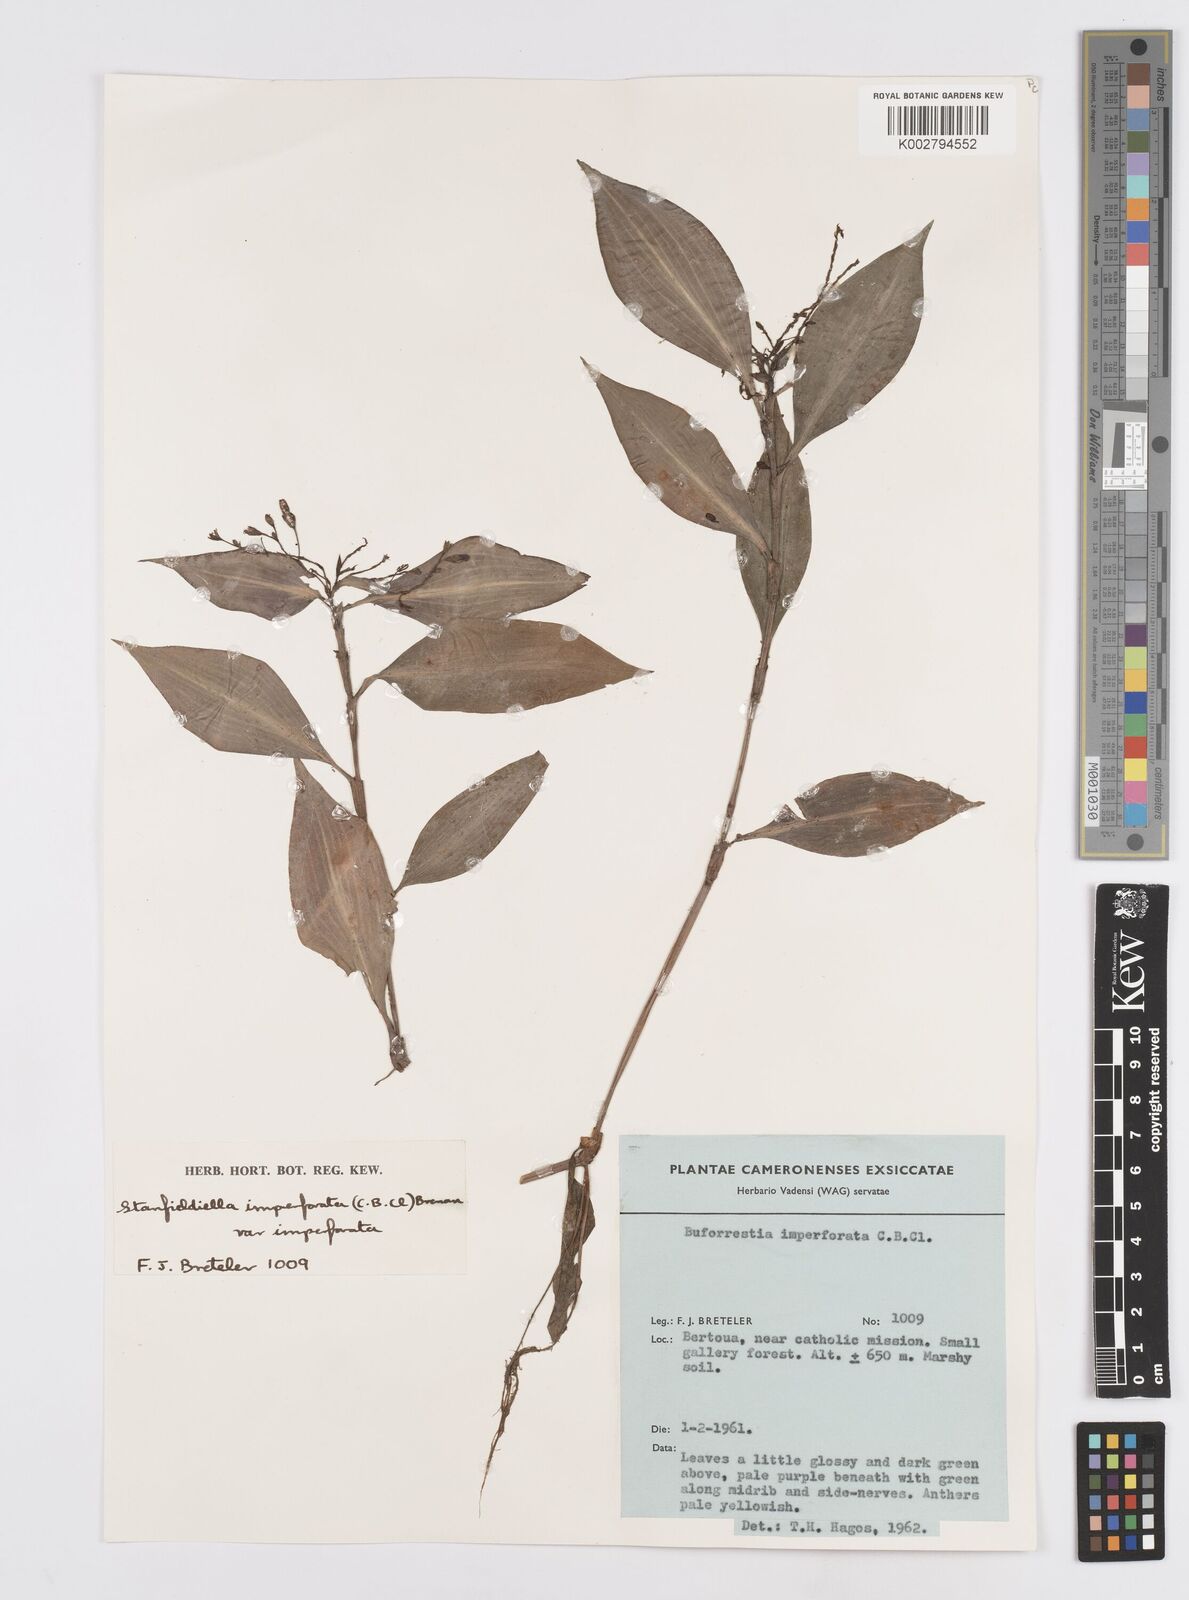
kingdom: Plantae
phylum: Tracheophyta
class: Liliopsida
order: Commelinales
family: Commelinaceae
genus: Stanfieldiella
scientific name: Stanfieldiella imperforata
